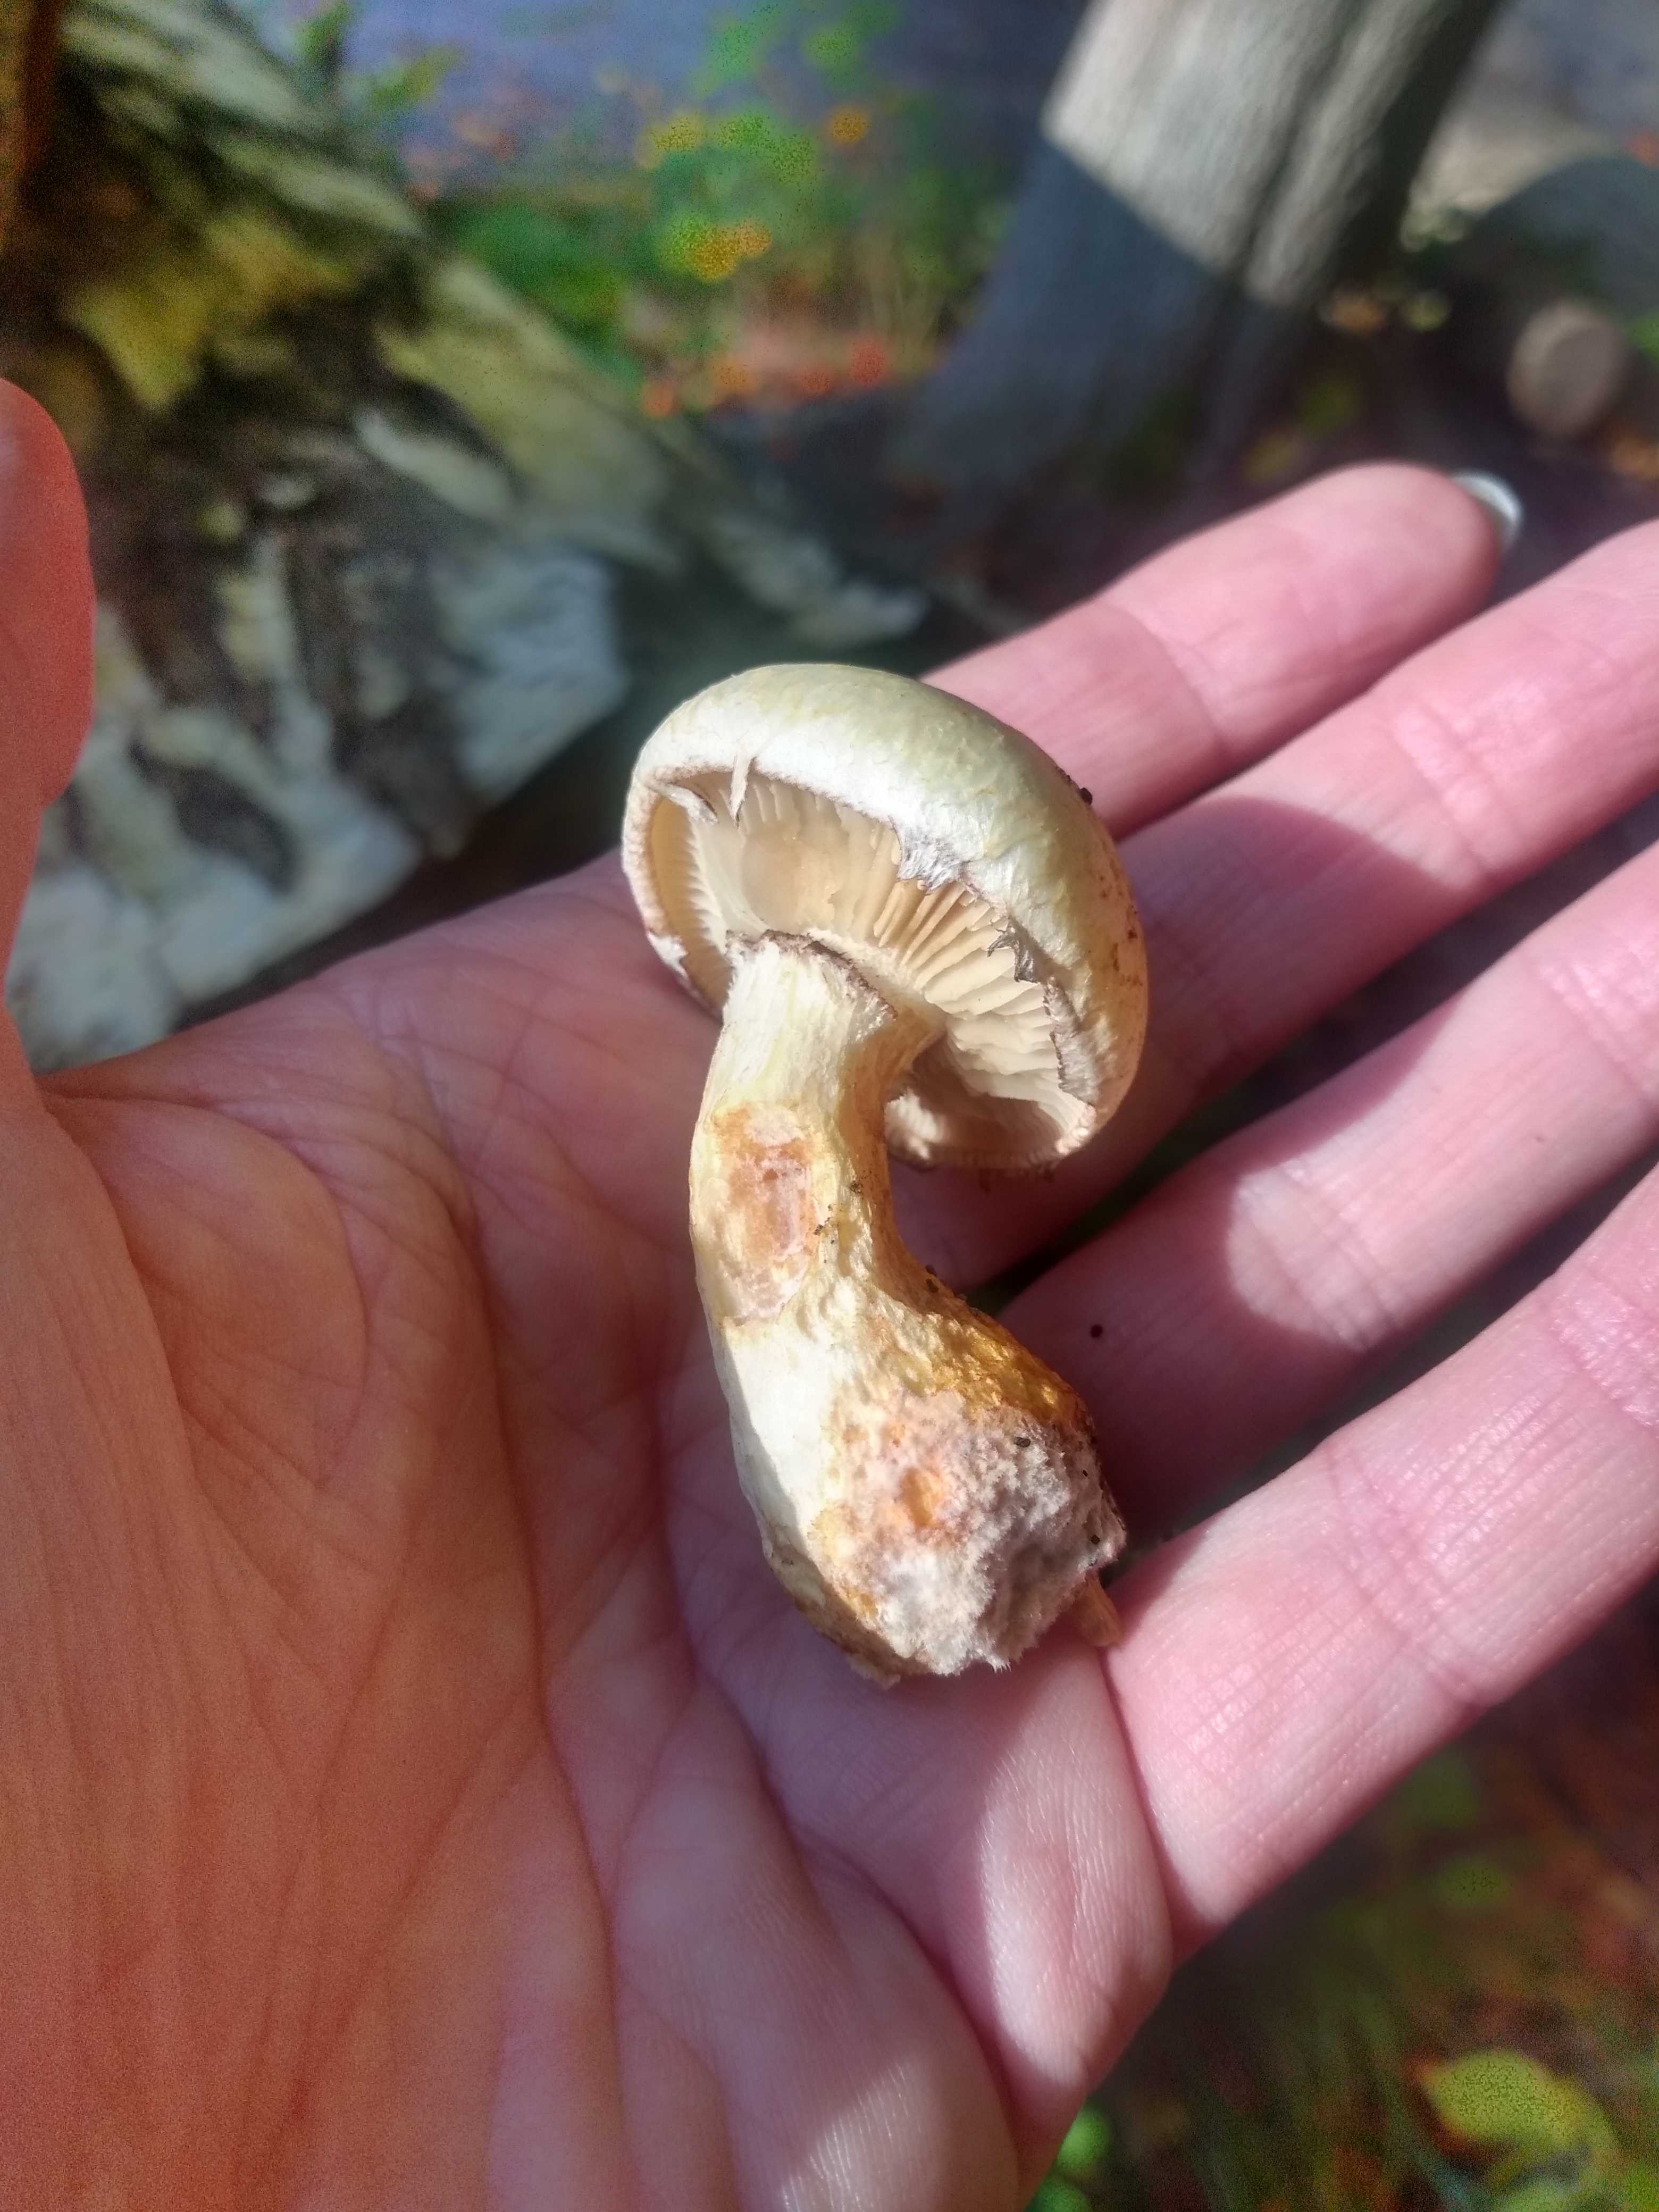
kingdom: Fungi
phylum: Basidiomycota
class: Agaricomycetes
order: Agaricales
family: Strophariaceae
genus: Pholiota
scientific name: Pholiota heteroclita
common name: duftende kæmpeskælhat
